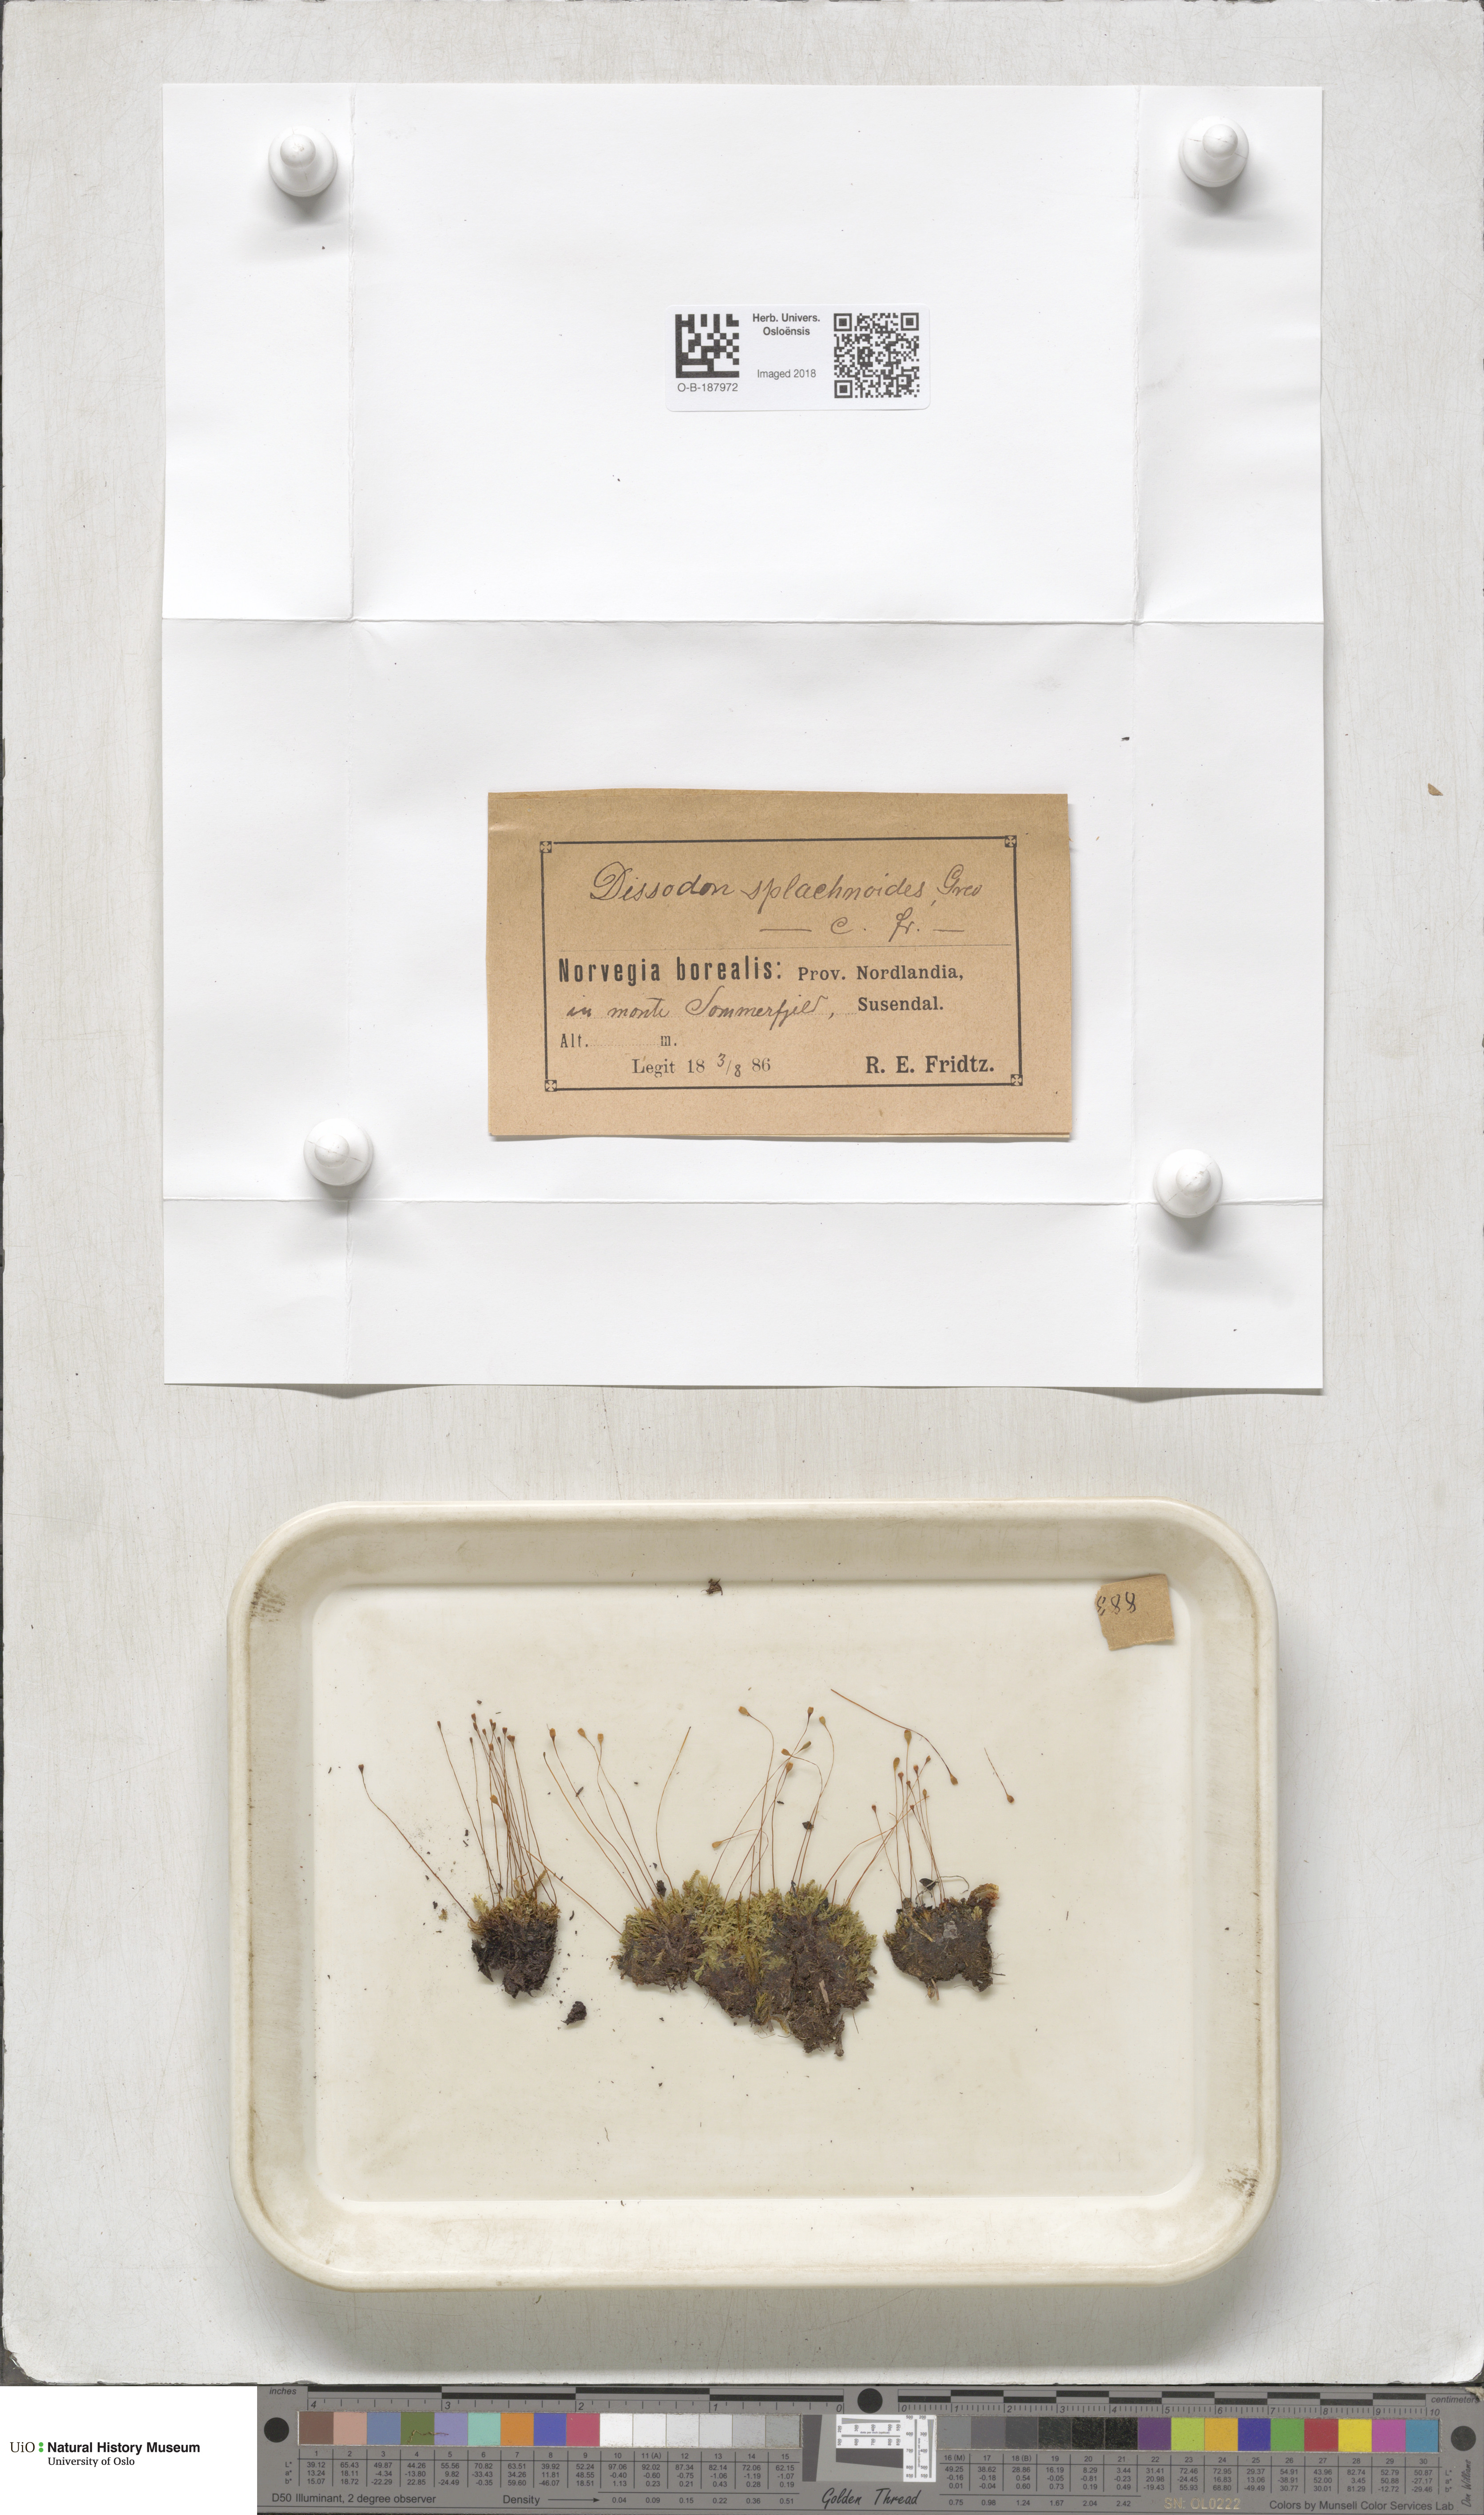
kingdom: Plantae
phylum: Bryophyta
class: Bryopsida
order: Splachnales
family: Splachnaceae
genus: Tayloria
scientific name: Tayloria lingulata
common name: Tongue-leaved trumpet moss
